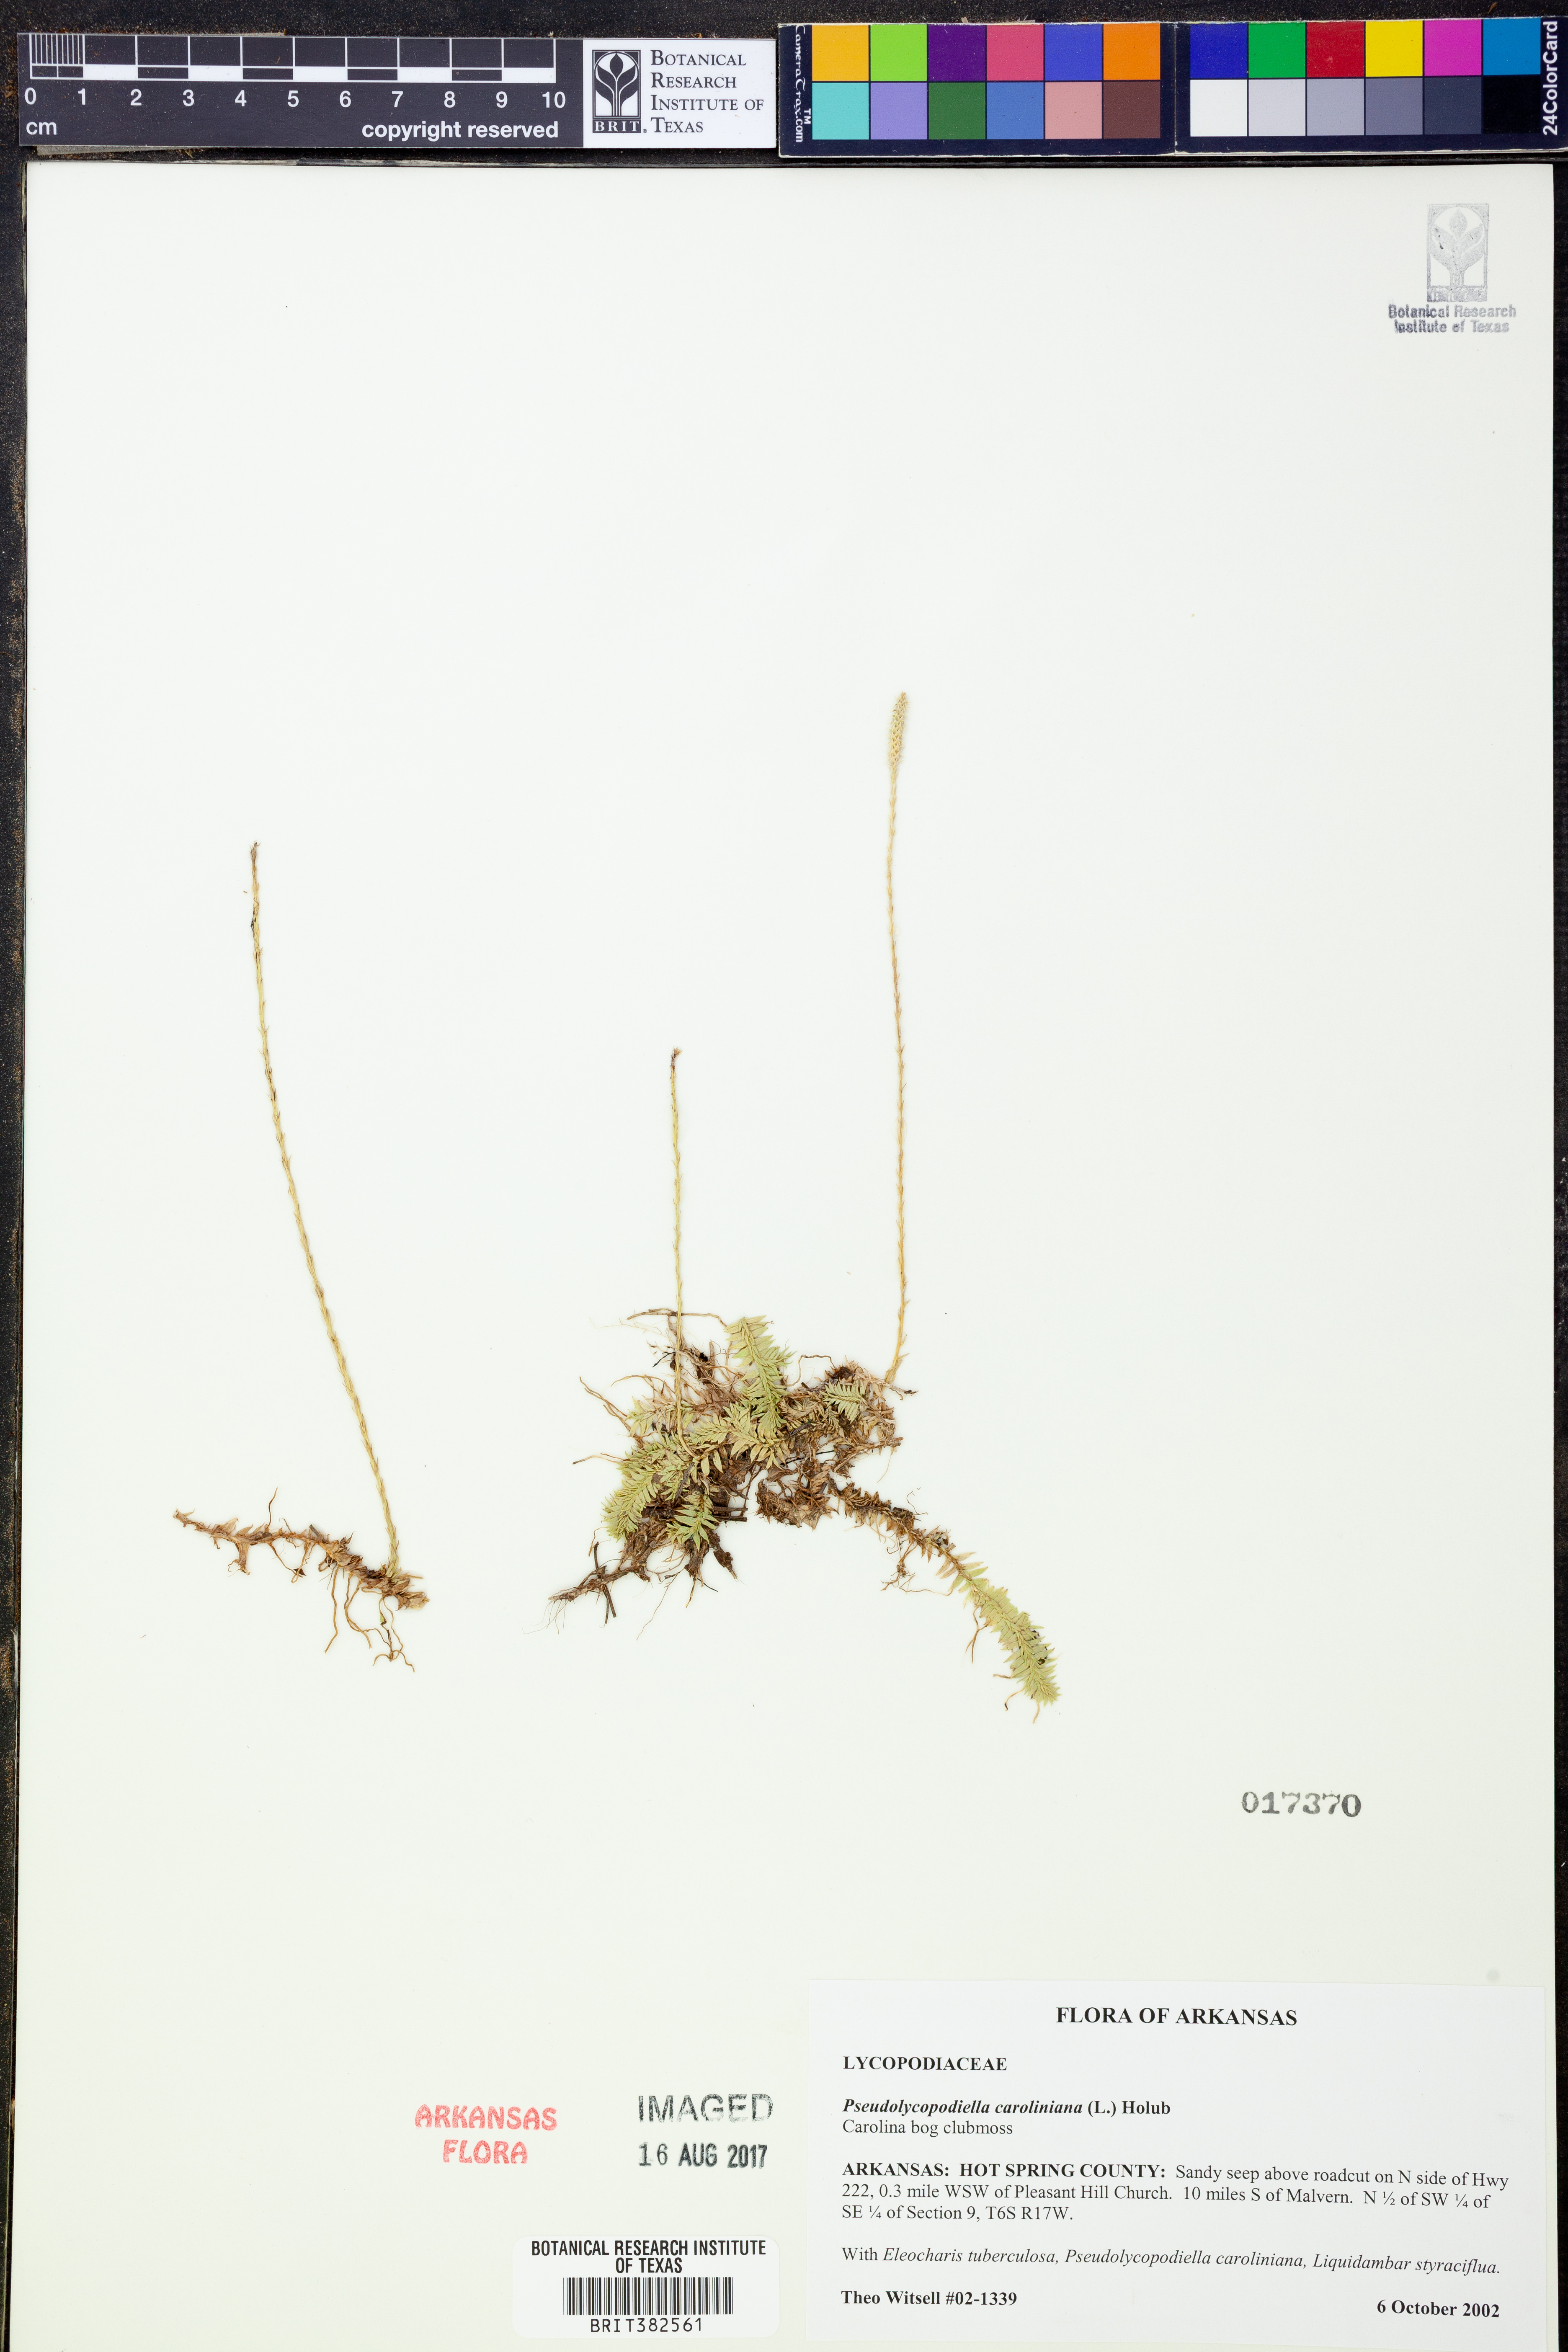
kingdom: Plantae
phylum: Tracheophyta
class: Lycopodiopsida
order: Lycopodiales
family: Lycopodiaceae
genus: Pseudolycopodiella
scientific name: Pseudolycopodiella caroliniana
